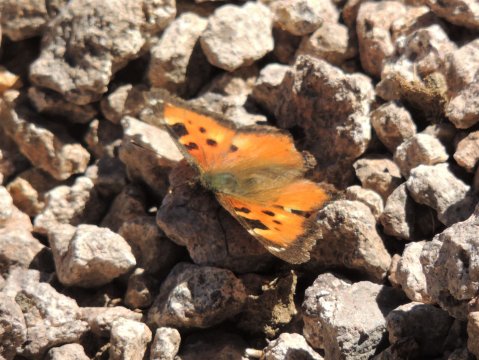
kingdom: Animalia
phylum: Arthropoda
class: Insecta
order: Lepidoptera
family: Nymphalidae
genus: Nymphalis
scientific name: Nymphalis californica
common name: California Tortoiseshell
